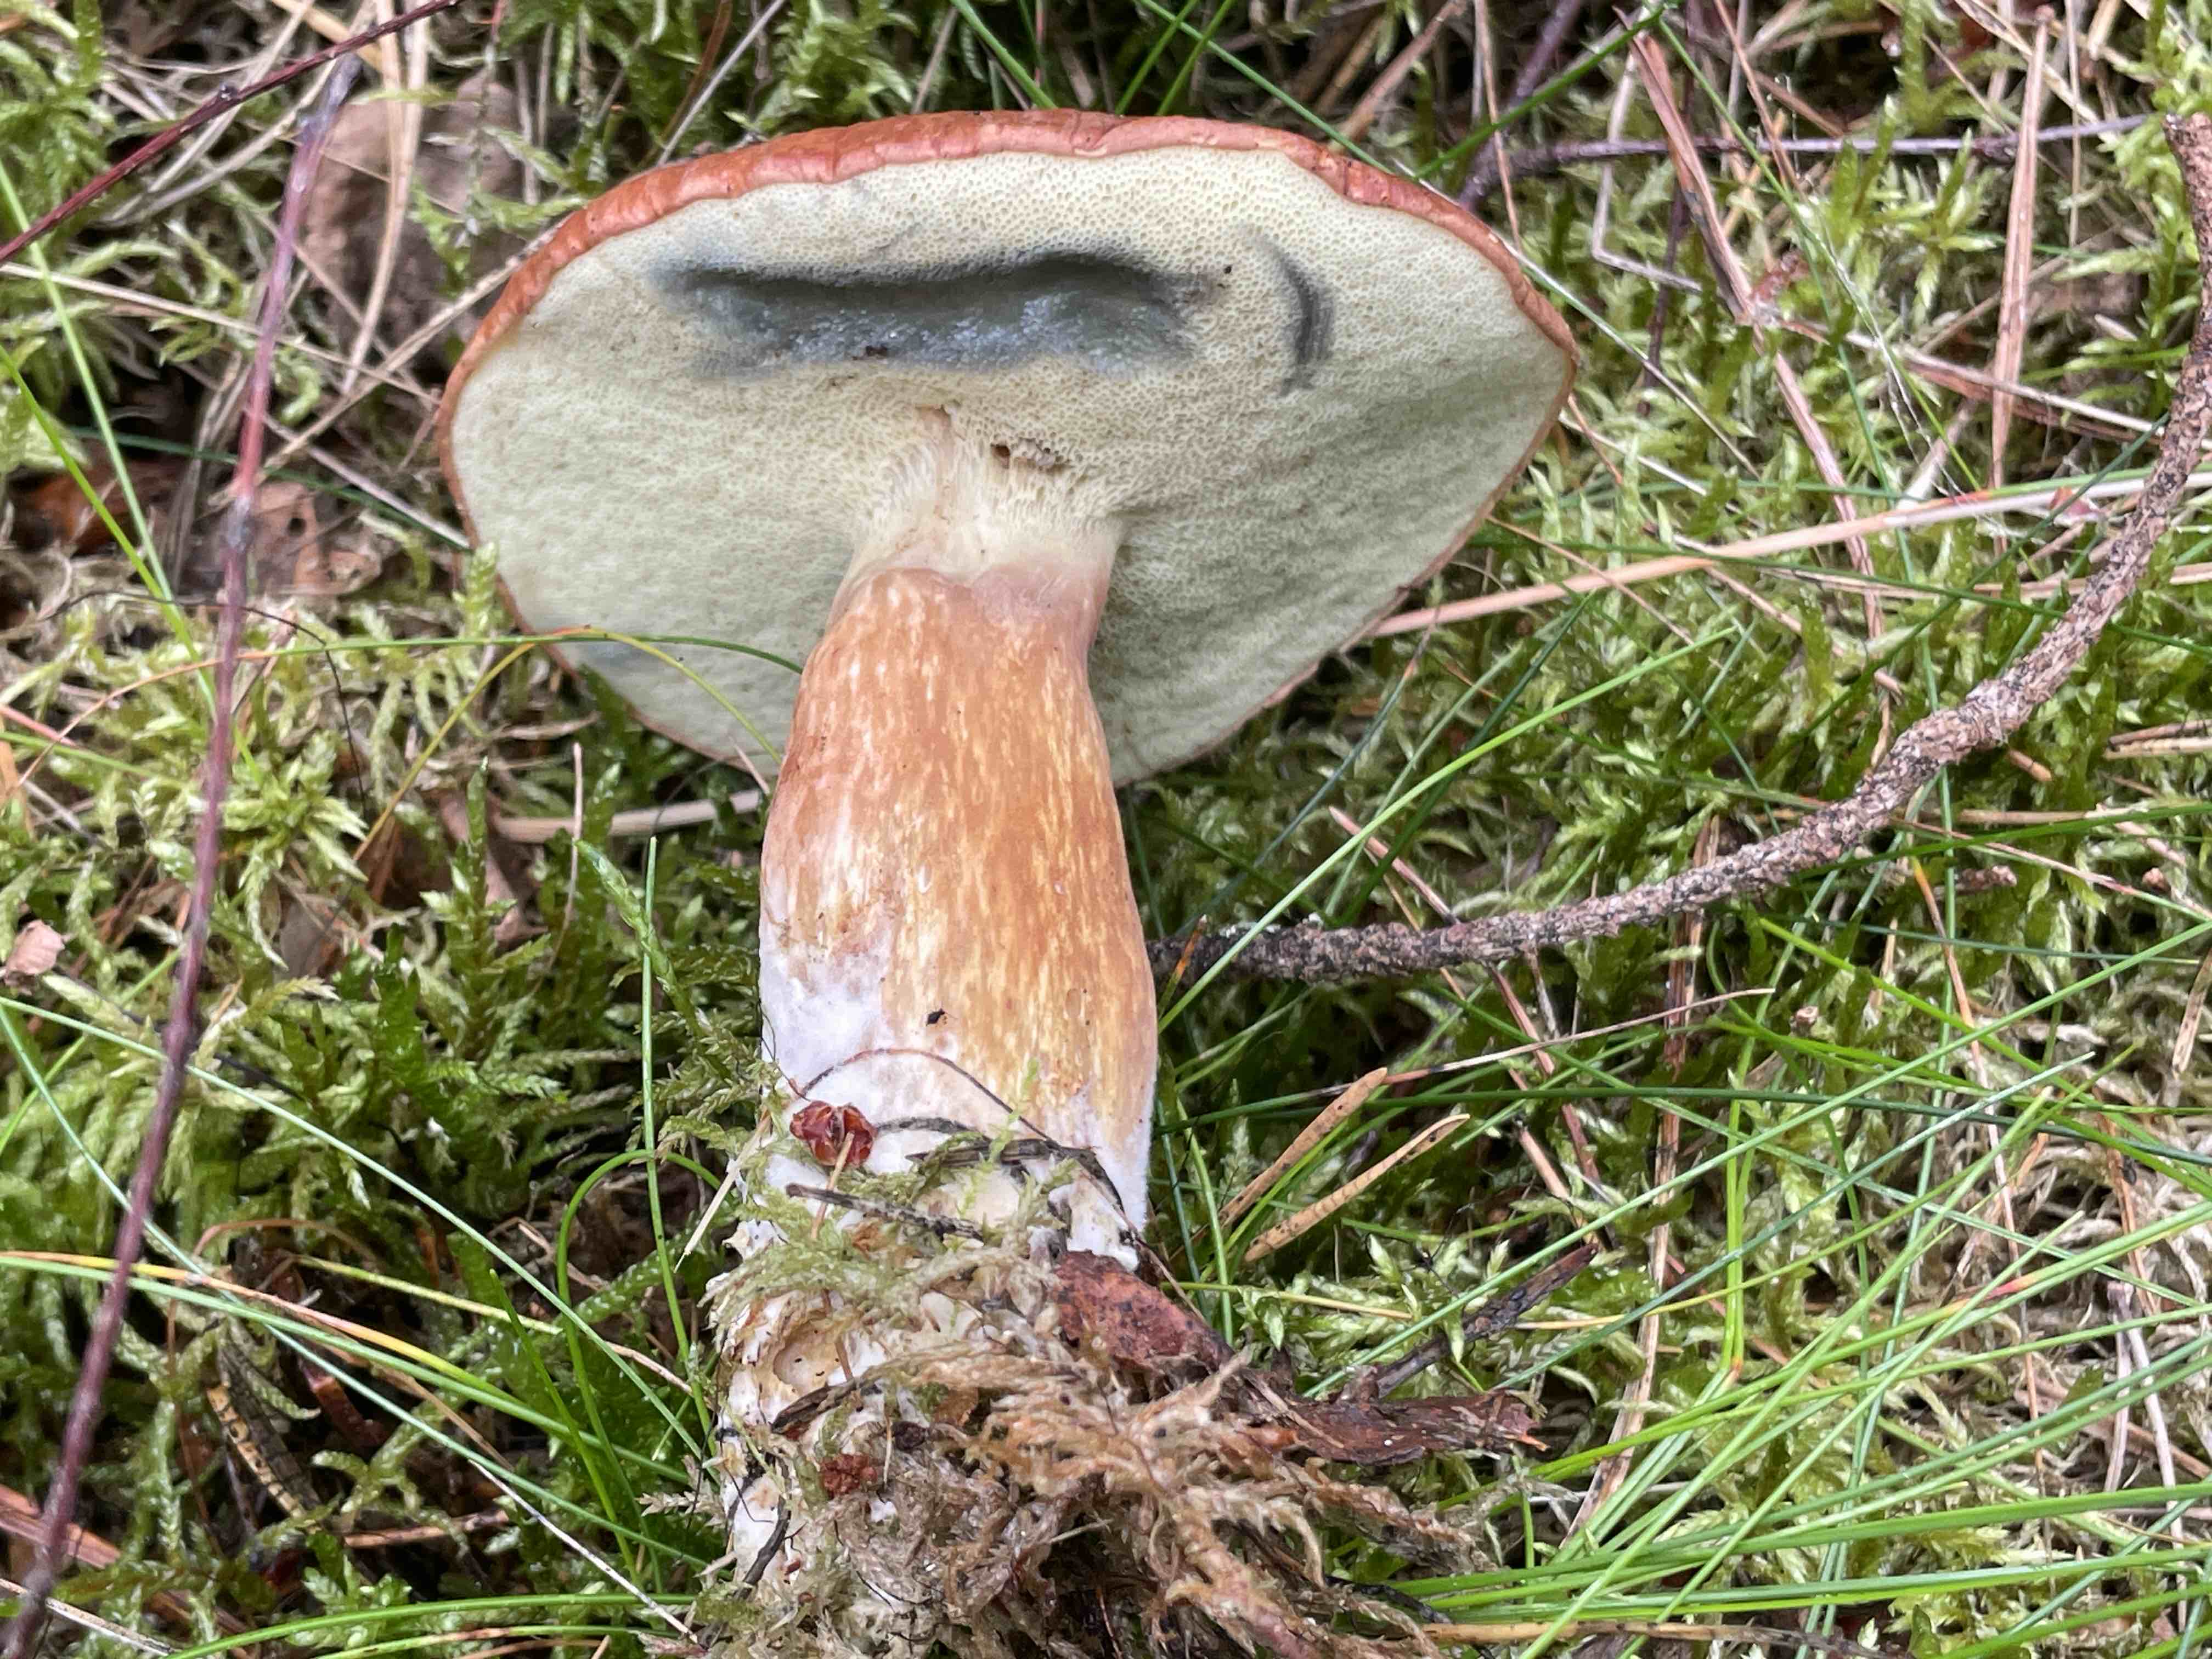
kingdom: Fungi
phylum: Basidiomycota
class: Agaricomycetes
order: Boletales
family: Boletaceae
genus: Imleria
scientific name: Imleria badia
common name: brunstokket rørhat
